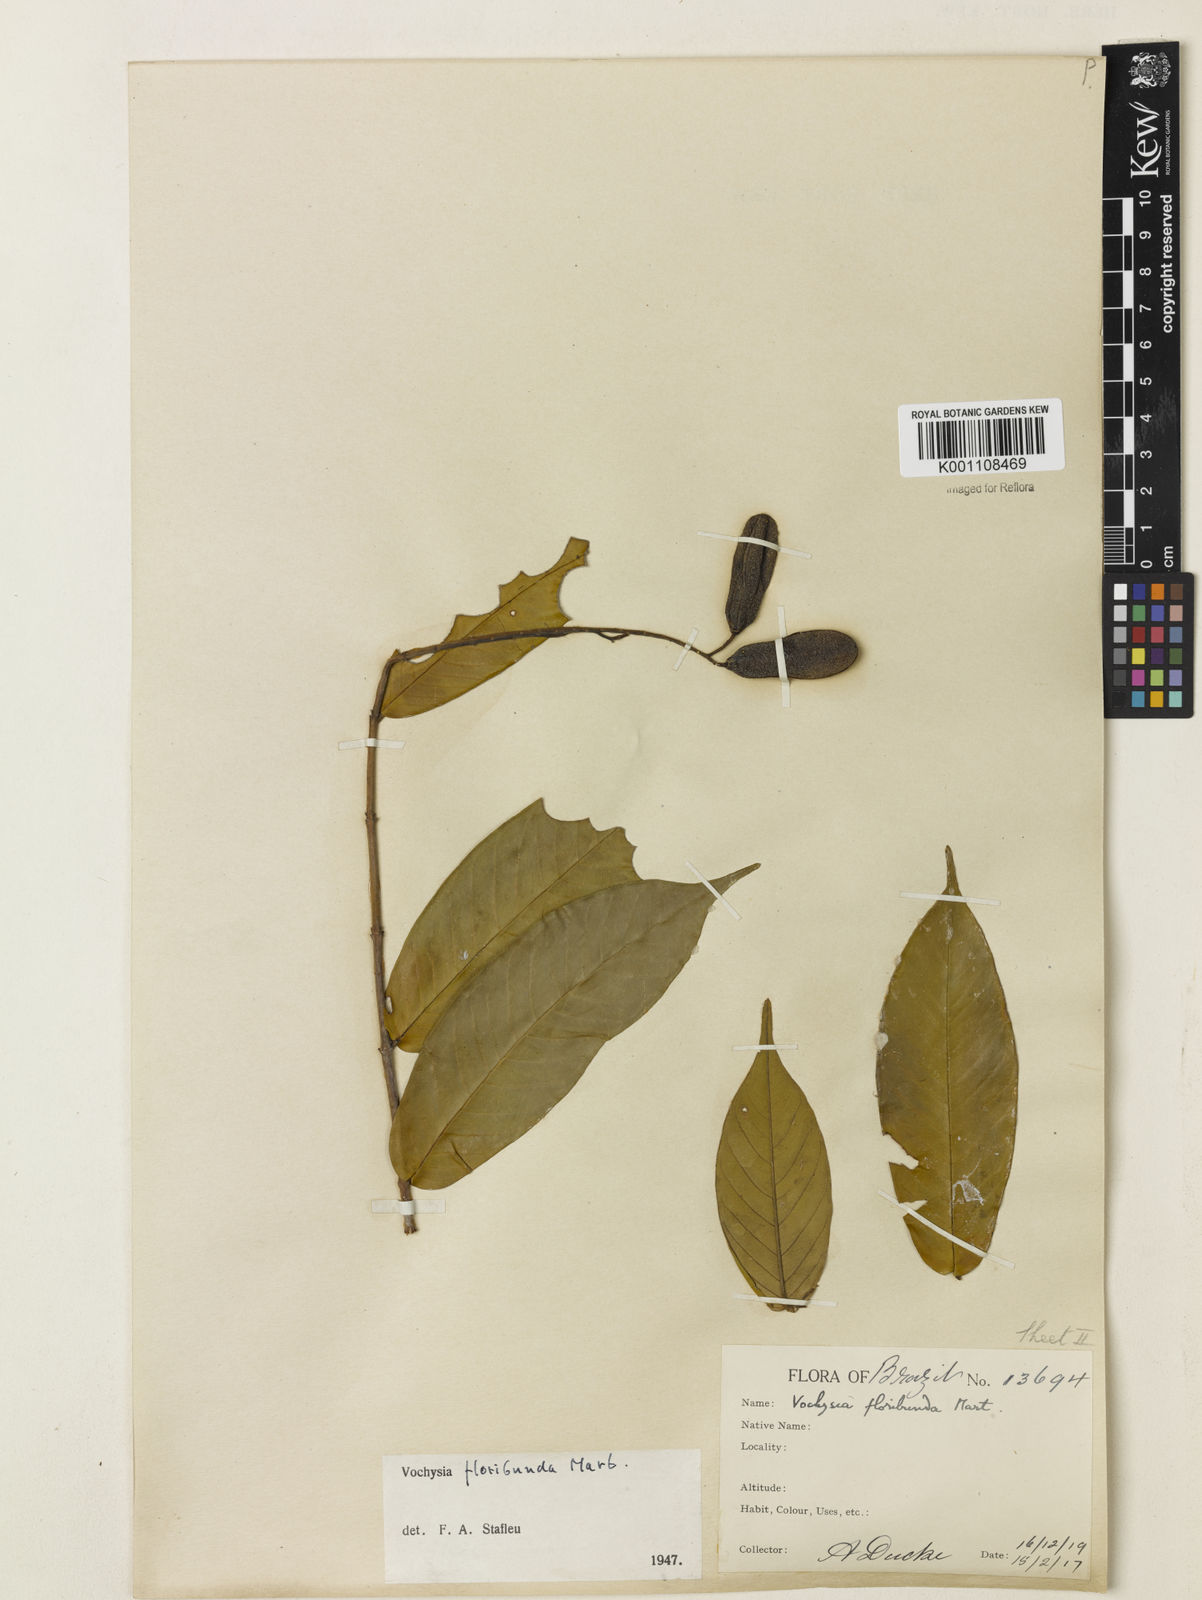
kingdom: Plantae
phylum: Tracheophyta
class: Magnoliopsida
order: Myrtales
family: Vochysiaceae
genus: Vochysia
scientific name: Vochysia floribunda
